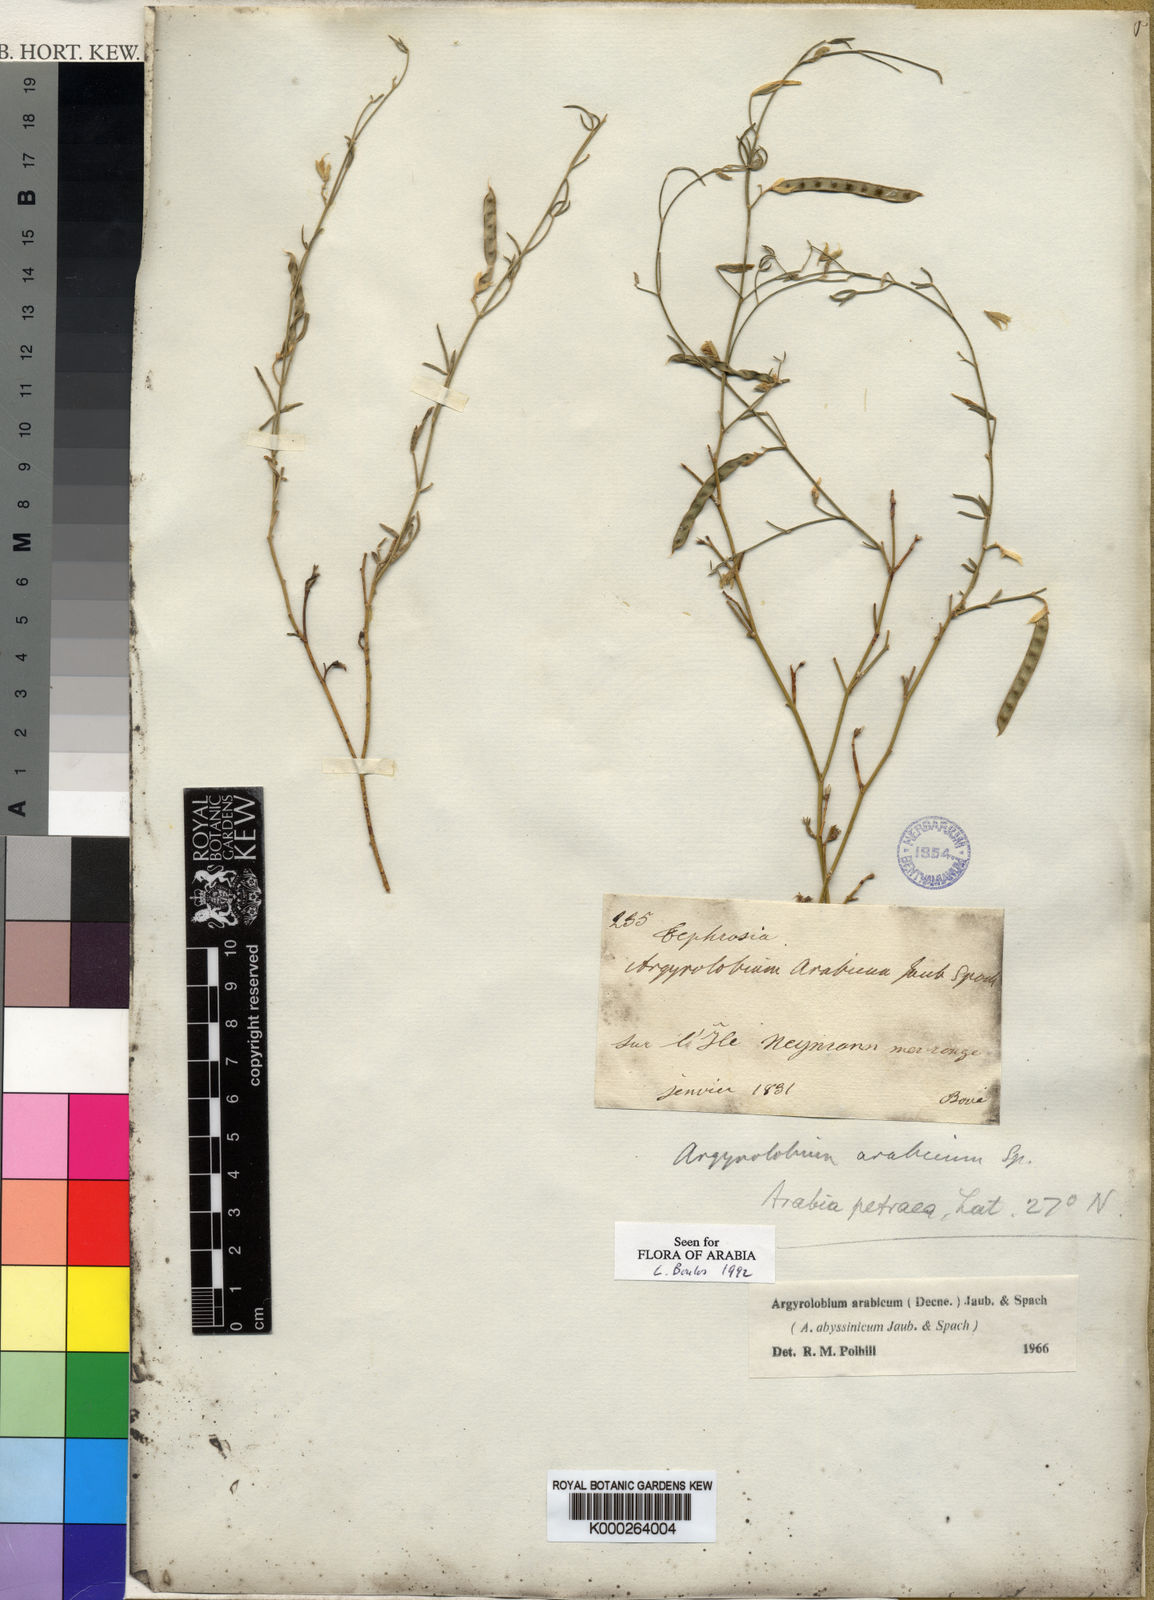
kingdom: Plantae
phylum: Tracheophyta
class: Magnoliopsida
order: Fabales
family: Fabaceae
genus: Argyrolobium
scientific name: Argyrolobium arabicum
